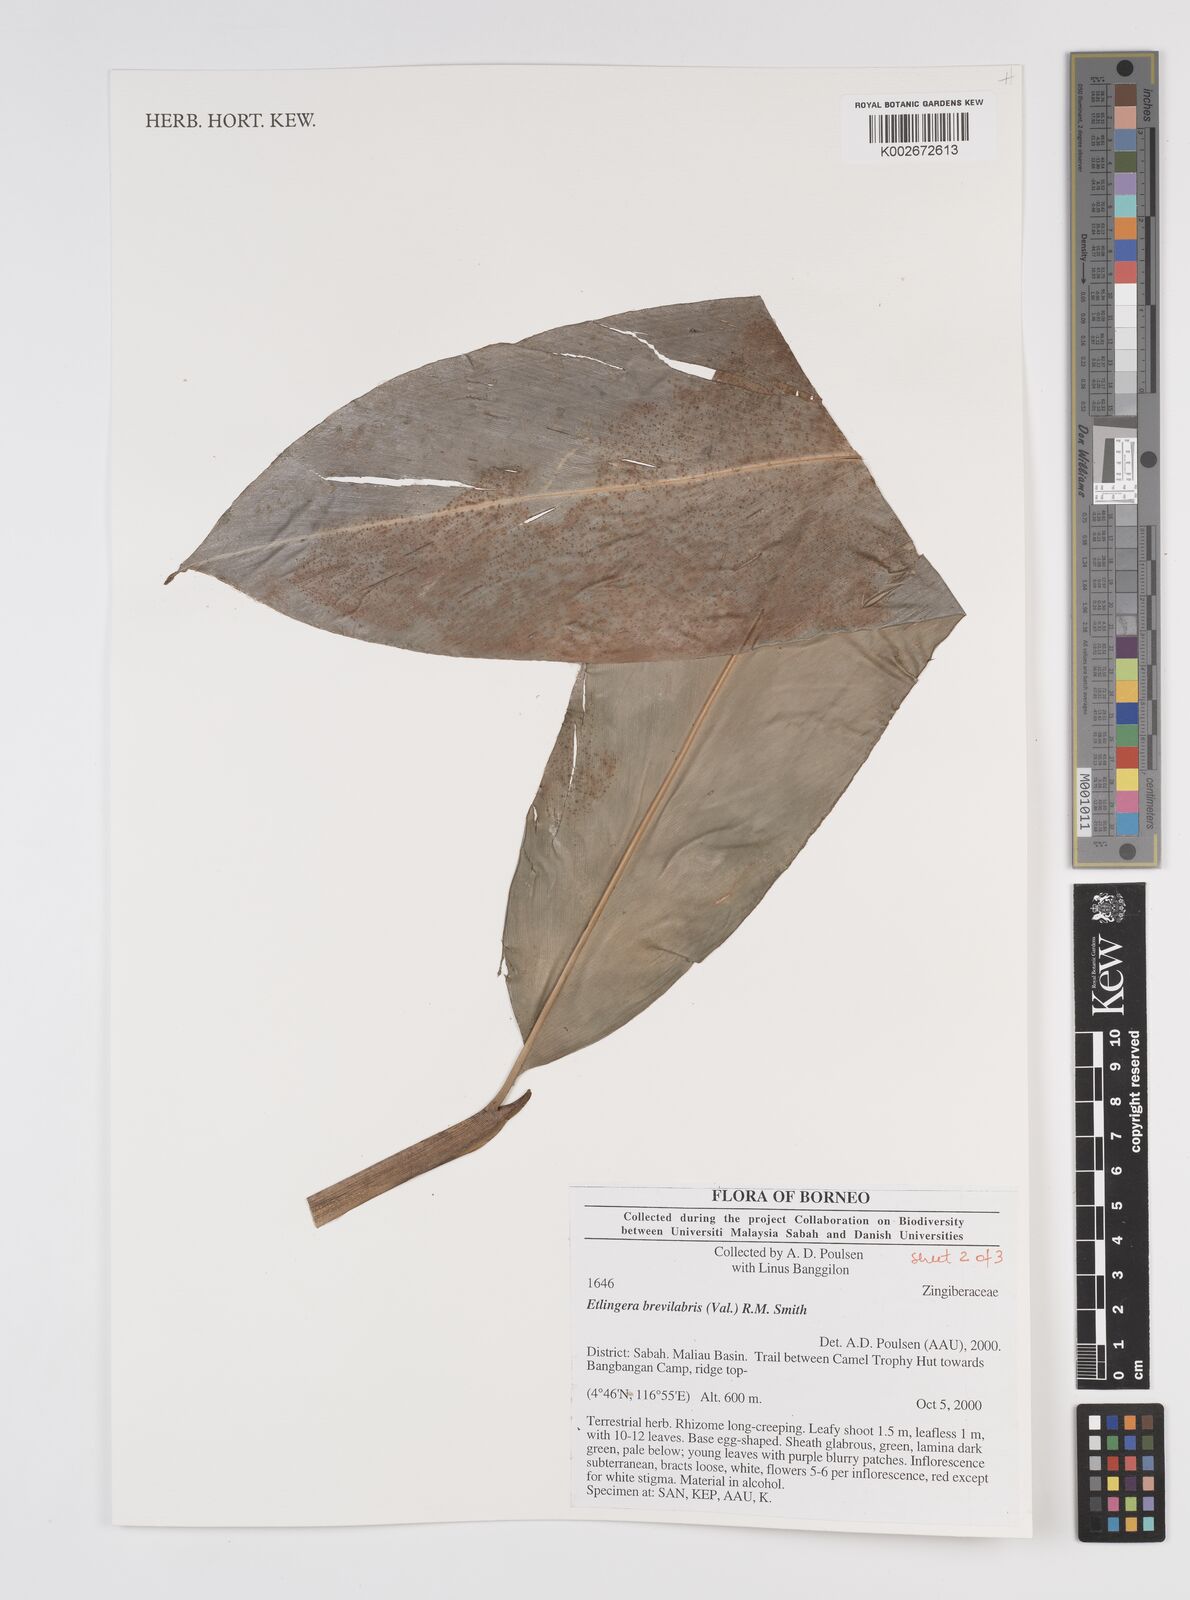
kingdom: Plantae
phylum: Tracheophyta
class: Liliopsida
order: Zingiberales
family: Zingiberaceae
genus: Etlingera
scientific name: Etlingera
